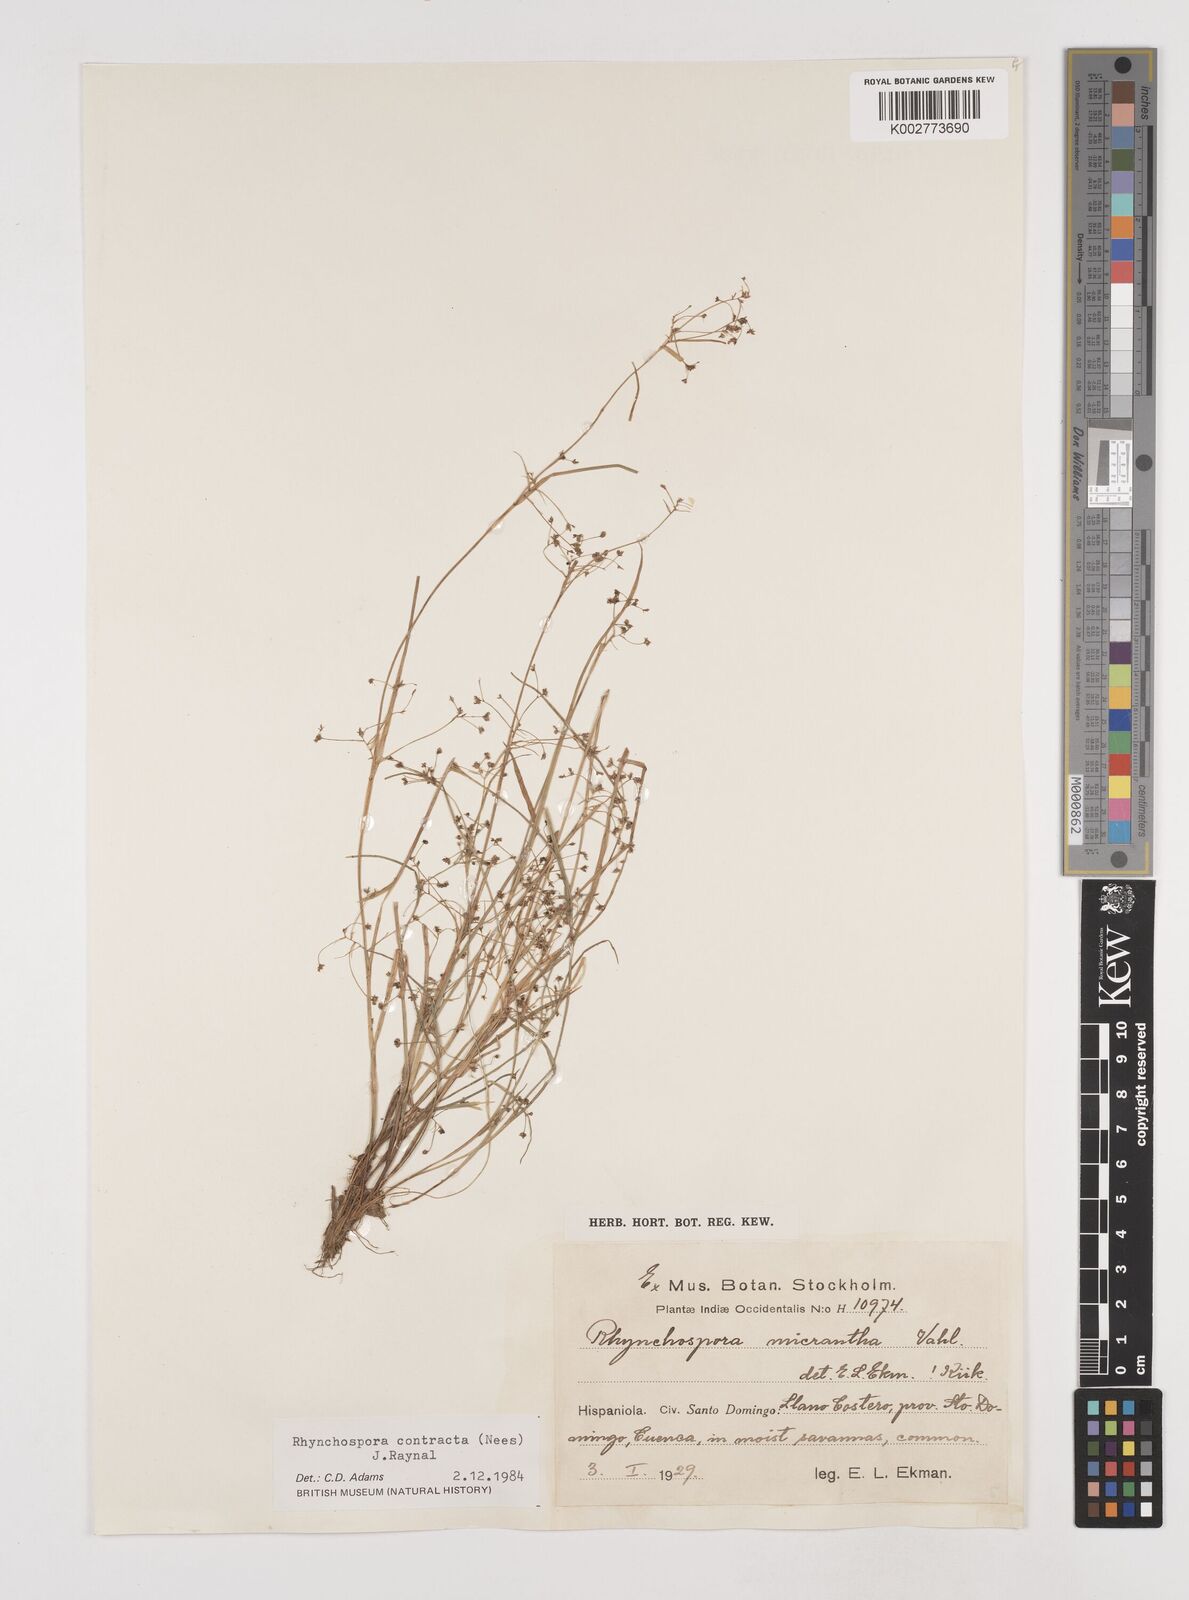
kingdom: Plantae
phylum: Tracheophyta
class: Liliopsida
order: Poales
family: Cyperaceae
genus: Rhynchospora
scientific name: Rhynchospora contracta
